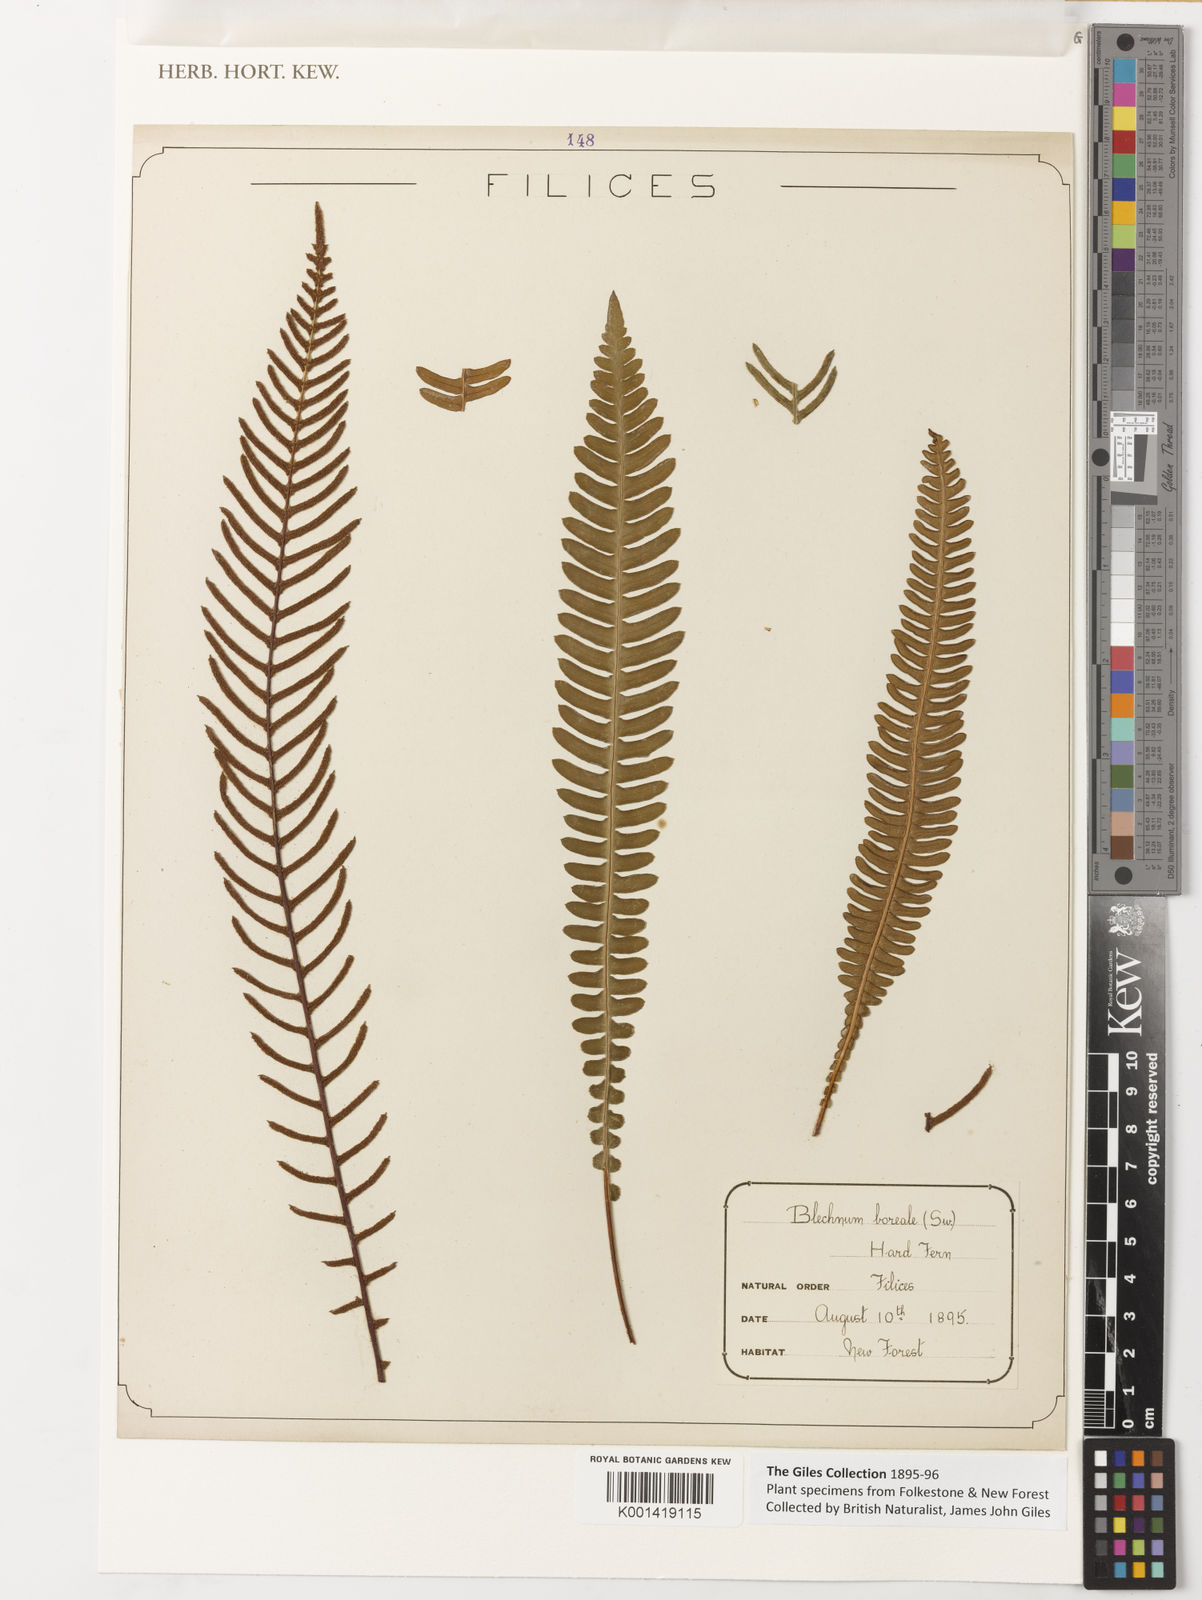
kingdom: Plantae
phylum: Tracheophyta
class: Polypodiopsida
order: Polypodiales
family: Blechnaceae
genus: Struthiopteris
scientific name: Struthiopteris spicant
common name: Deer fern
